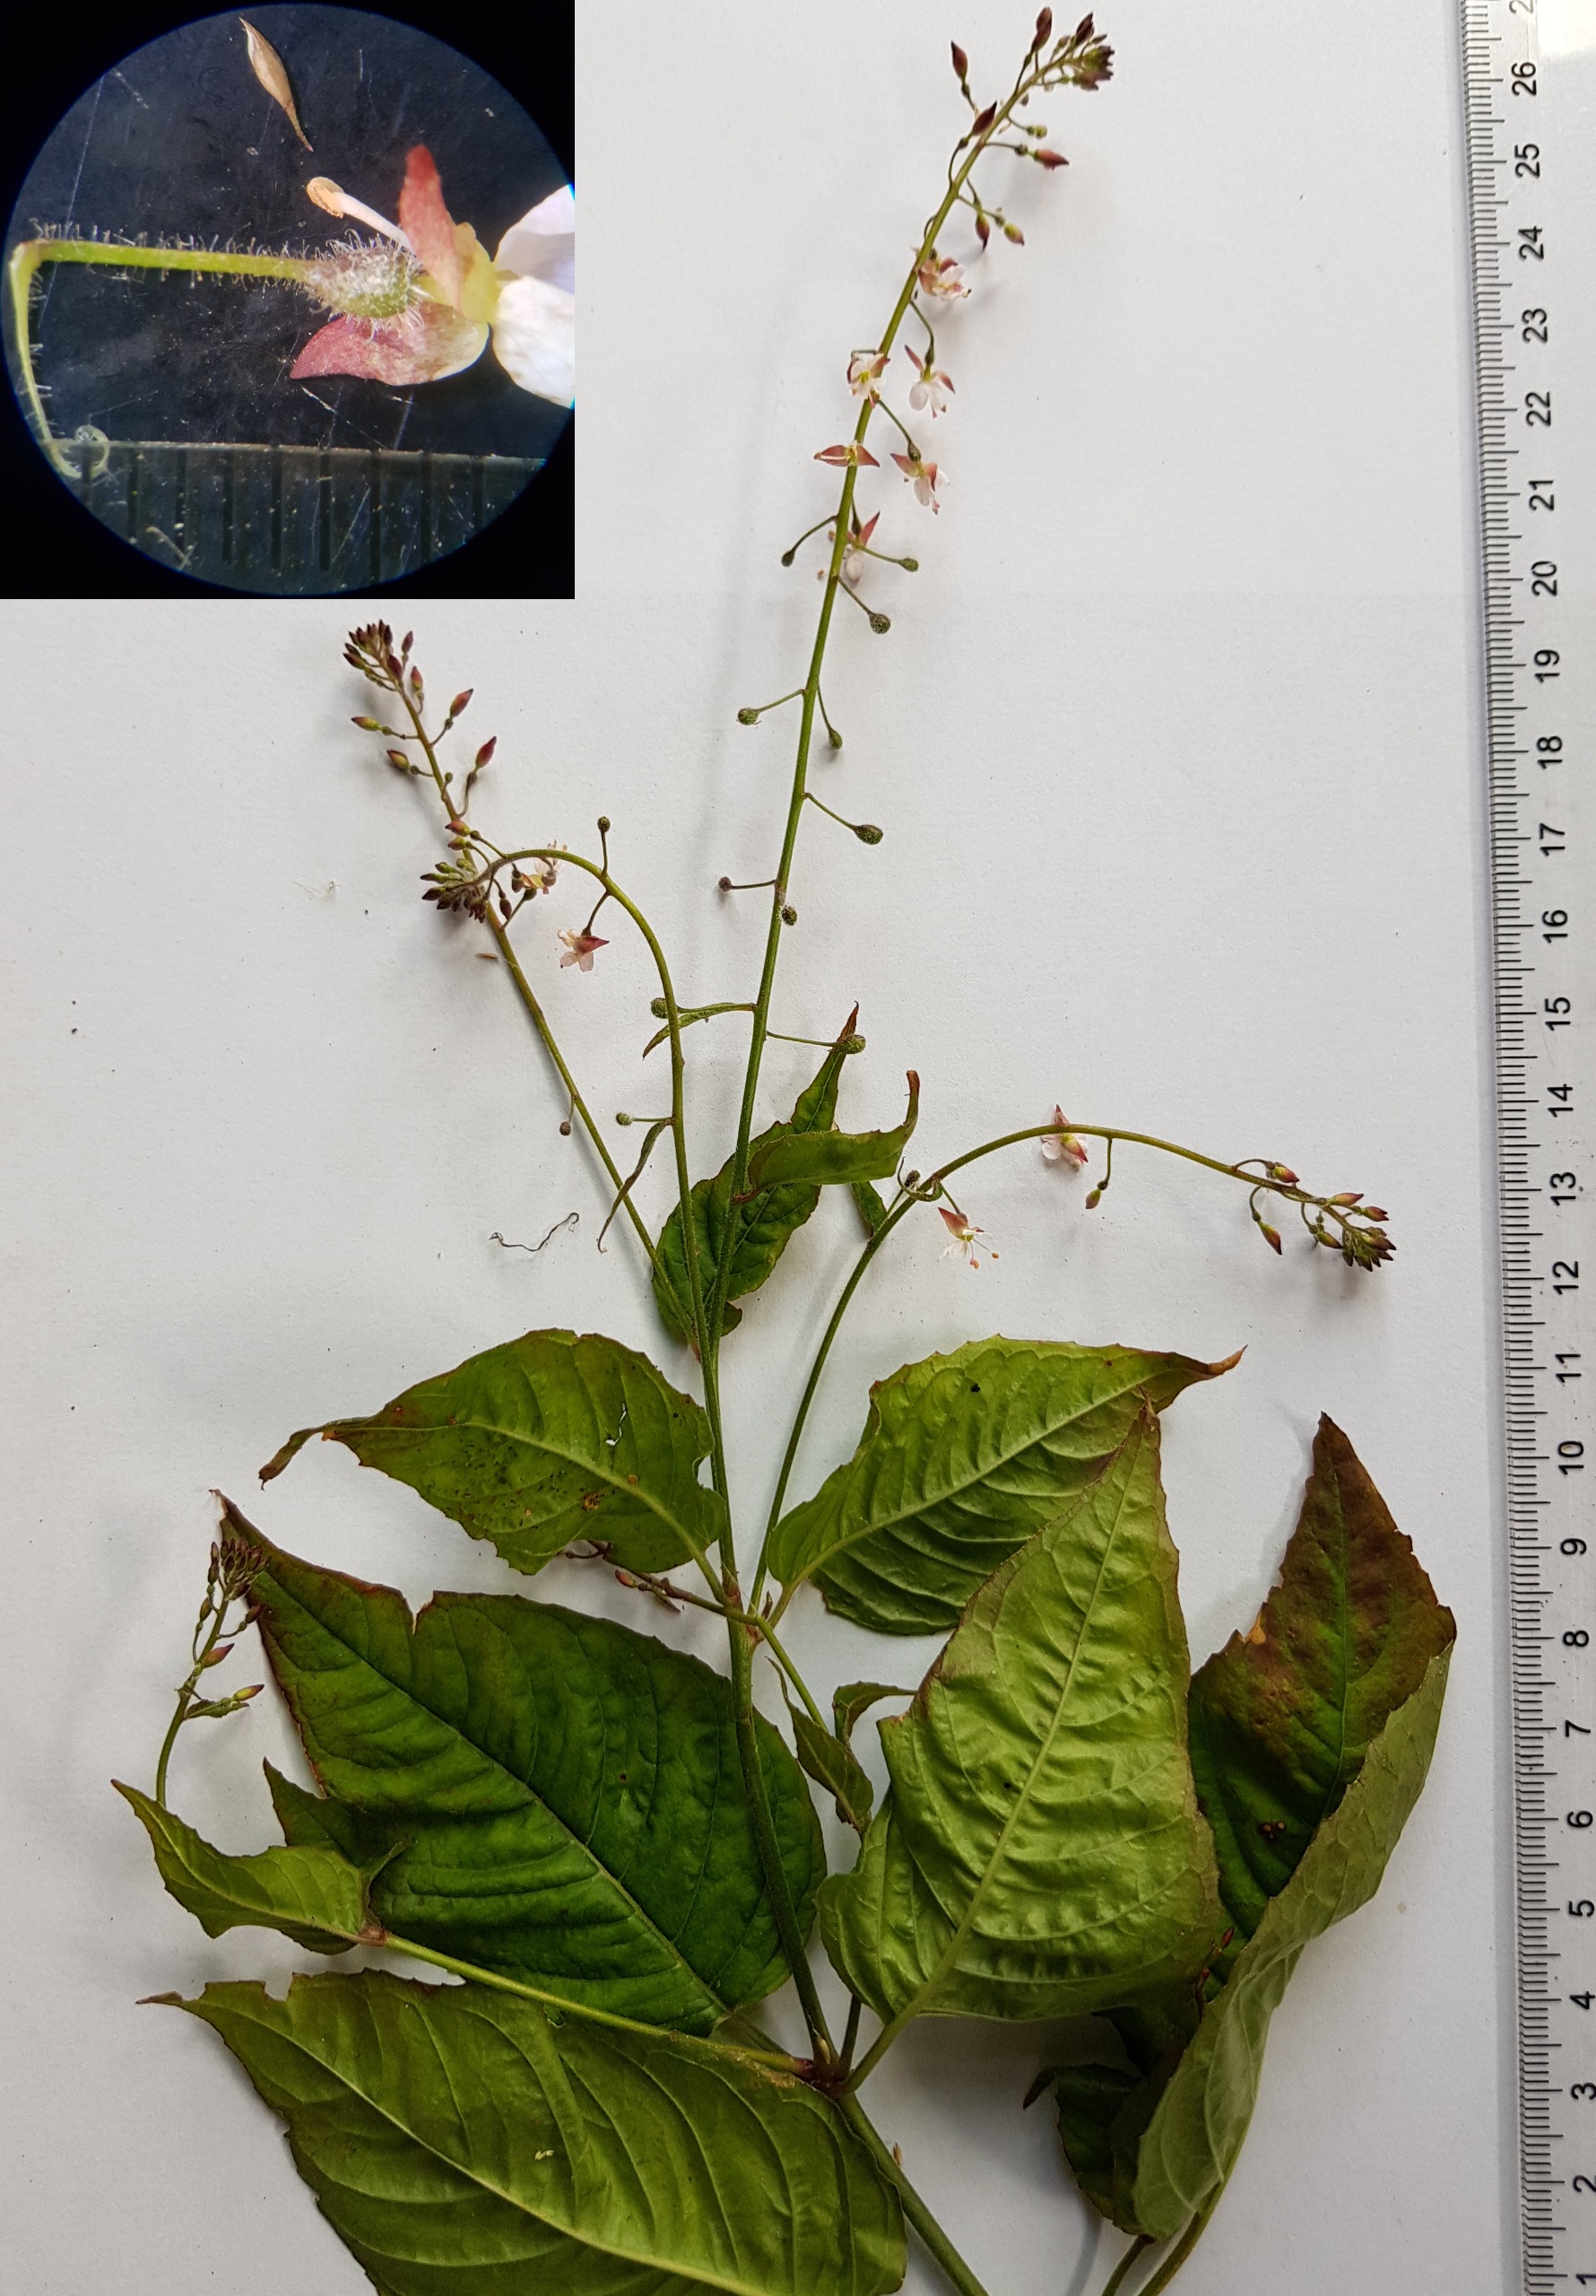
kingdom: Plantae
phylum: Tracheophyta
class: Magnoliopsida
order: Myrtales
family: Onagraceae
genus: Circaea
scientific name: Circaea lutetiana
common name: Dunet steffensurt
